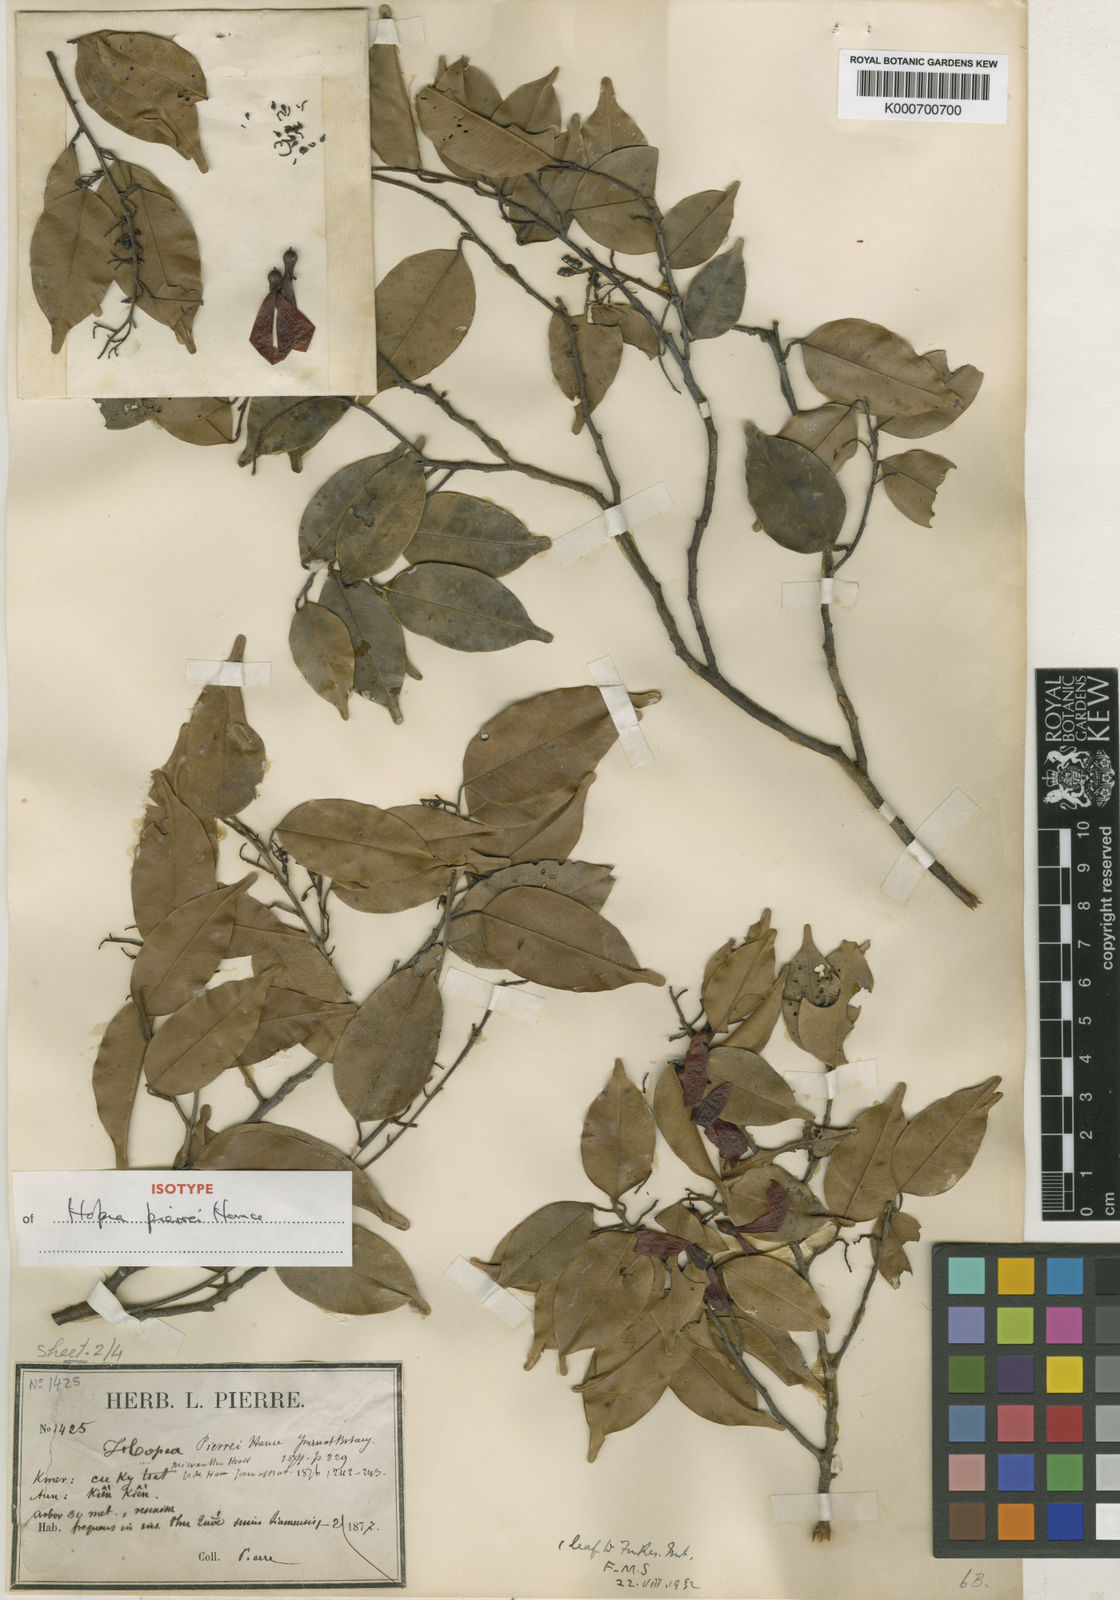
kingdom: Plantae
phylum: Tracheophyta
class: Magnoliopsida
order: Malvales
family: Dipterocarpaceae
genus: Hopea
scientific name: Hopea pierrei
